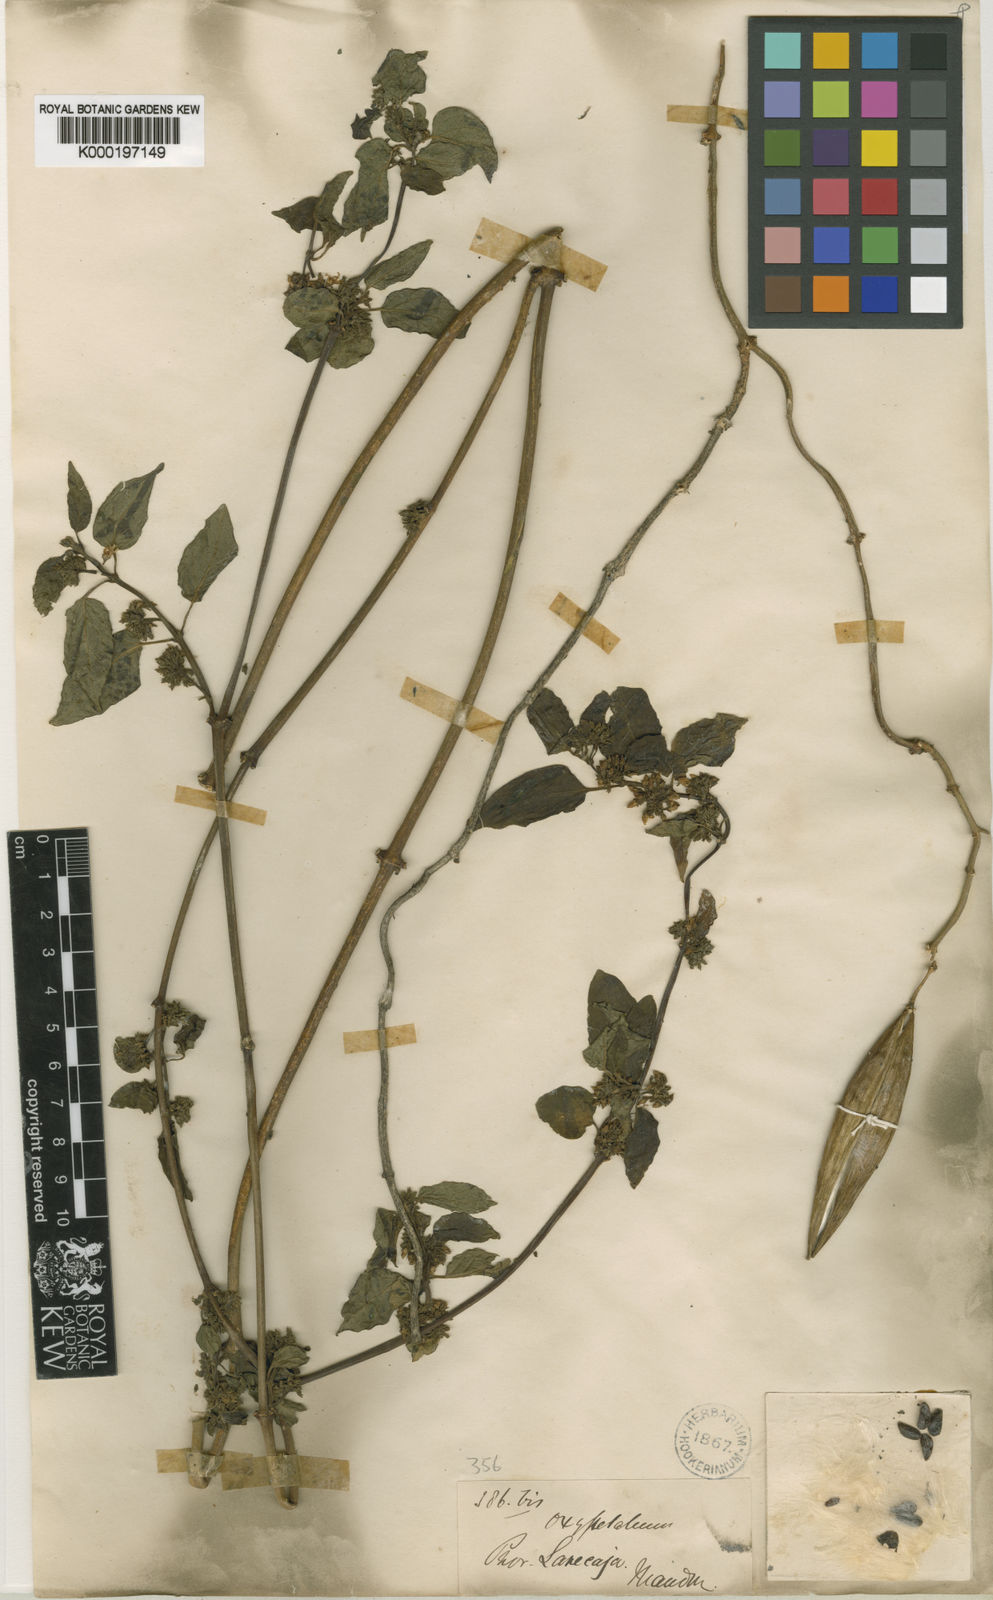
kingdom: Plantae
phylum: Tracheophyta
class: Magnoliopsida
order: Gentianales
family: Apocynaceae
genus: Jobinia
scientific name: Jobinia umbellata
